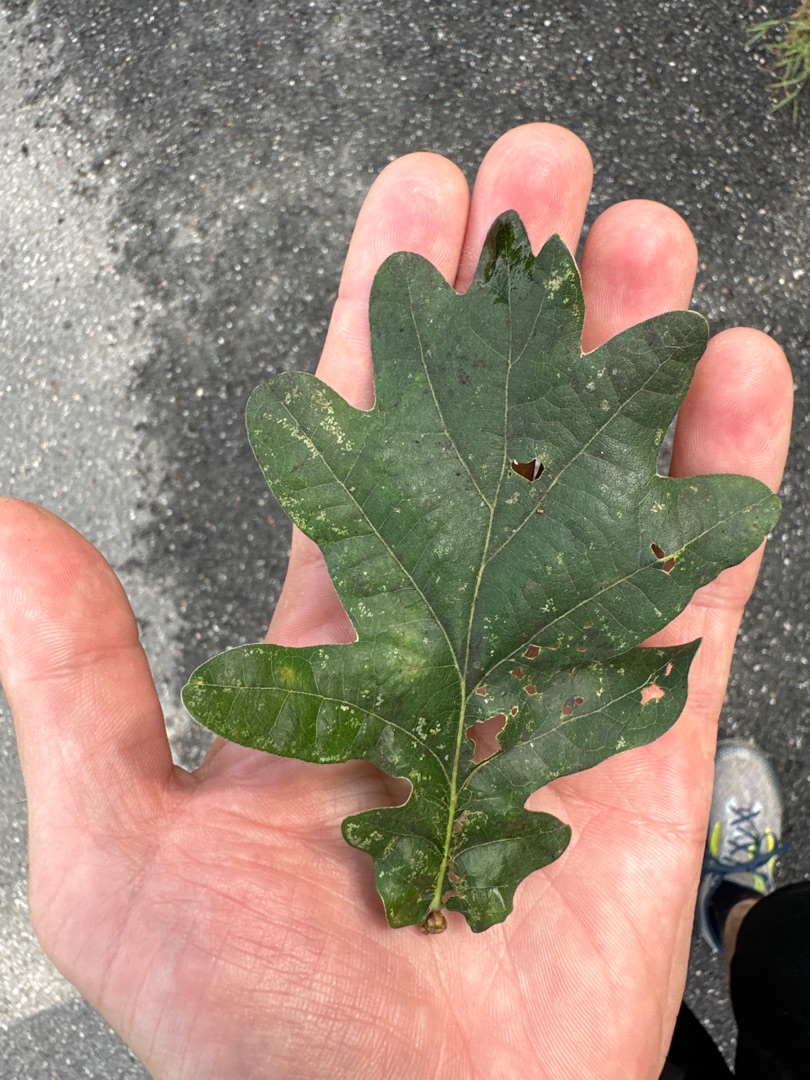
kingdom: Plantae
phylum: Tracheophyta
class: Magnoliopsida
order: Fagales
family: Fagaceae
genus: Quercus
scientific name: Quercus robur
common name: Stilk-eg/almindelig eg
